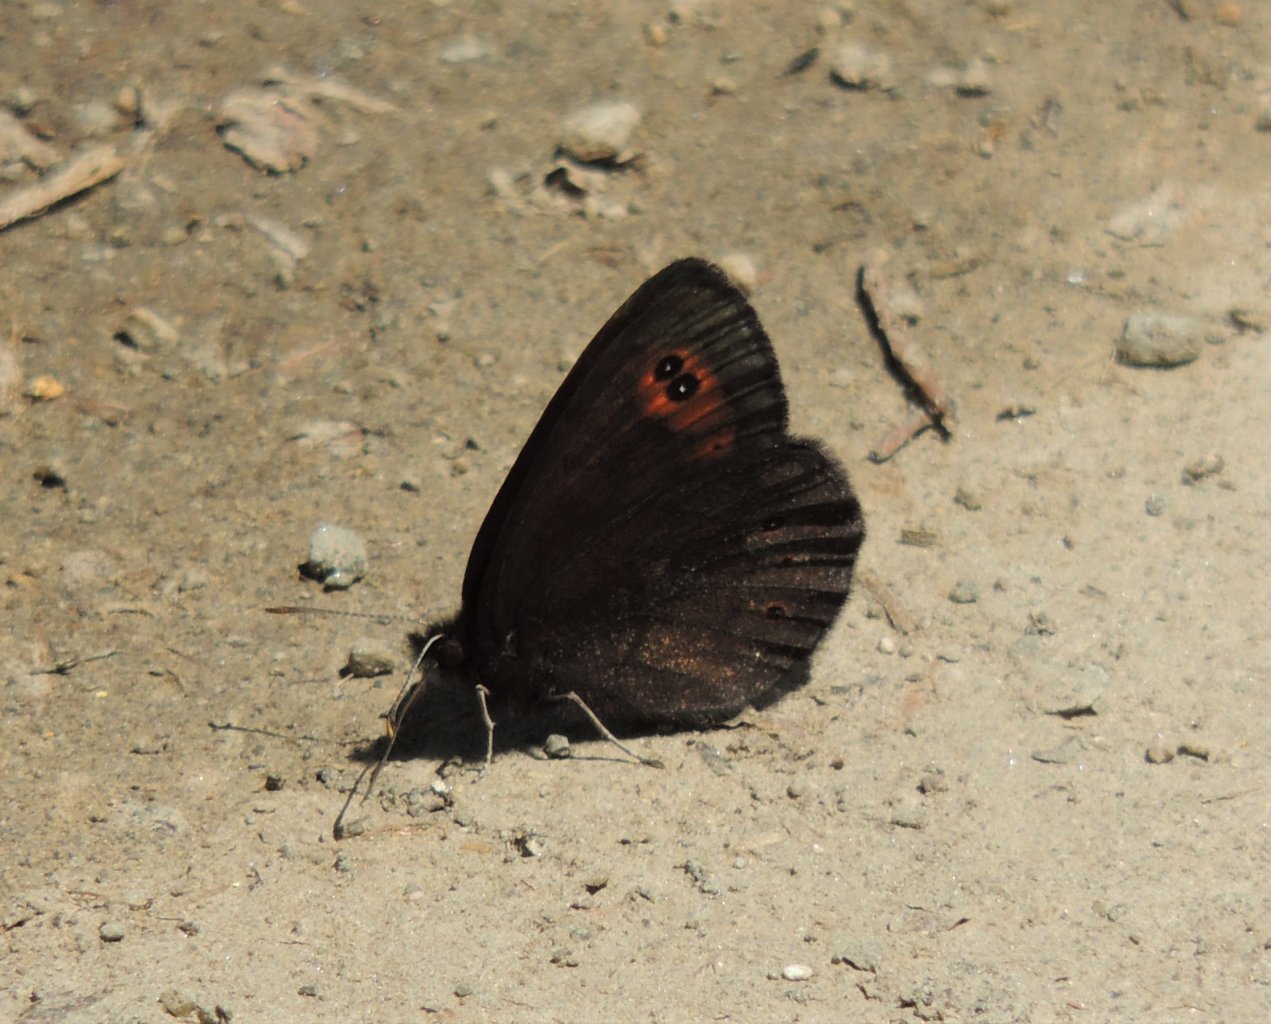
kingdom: Animalia
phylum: Arthropoda
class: Insecta
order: Lepidoptera
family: Nymphalidae
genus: Erebia
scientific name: Erebia epipsodea
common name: Common Alpine
